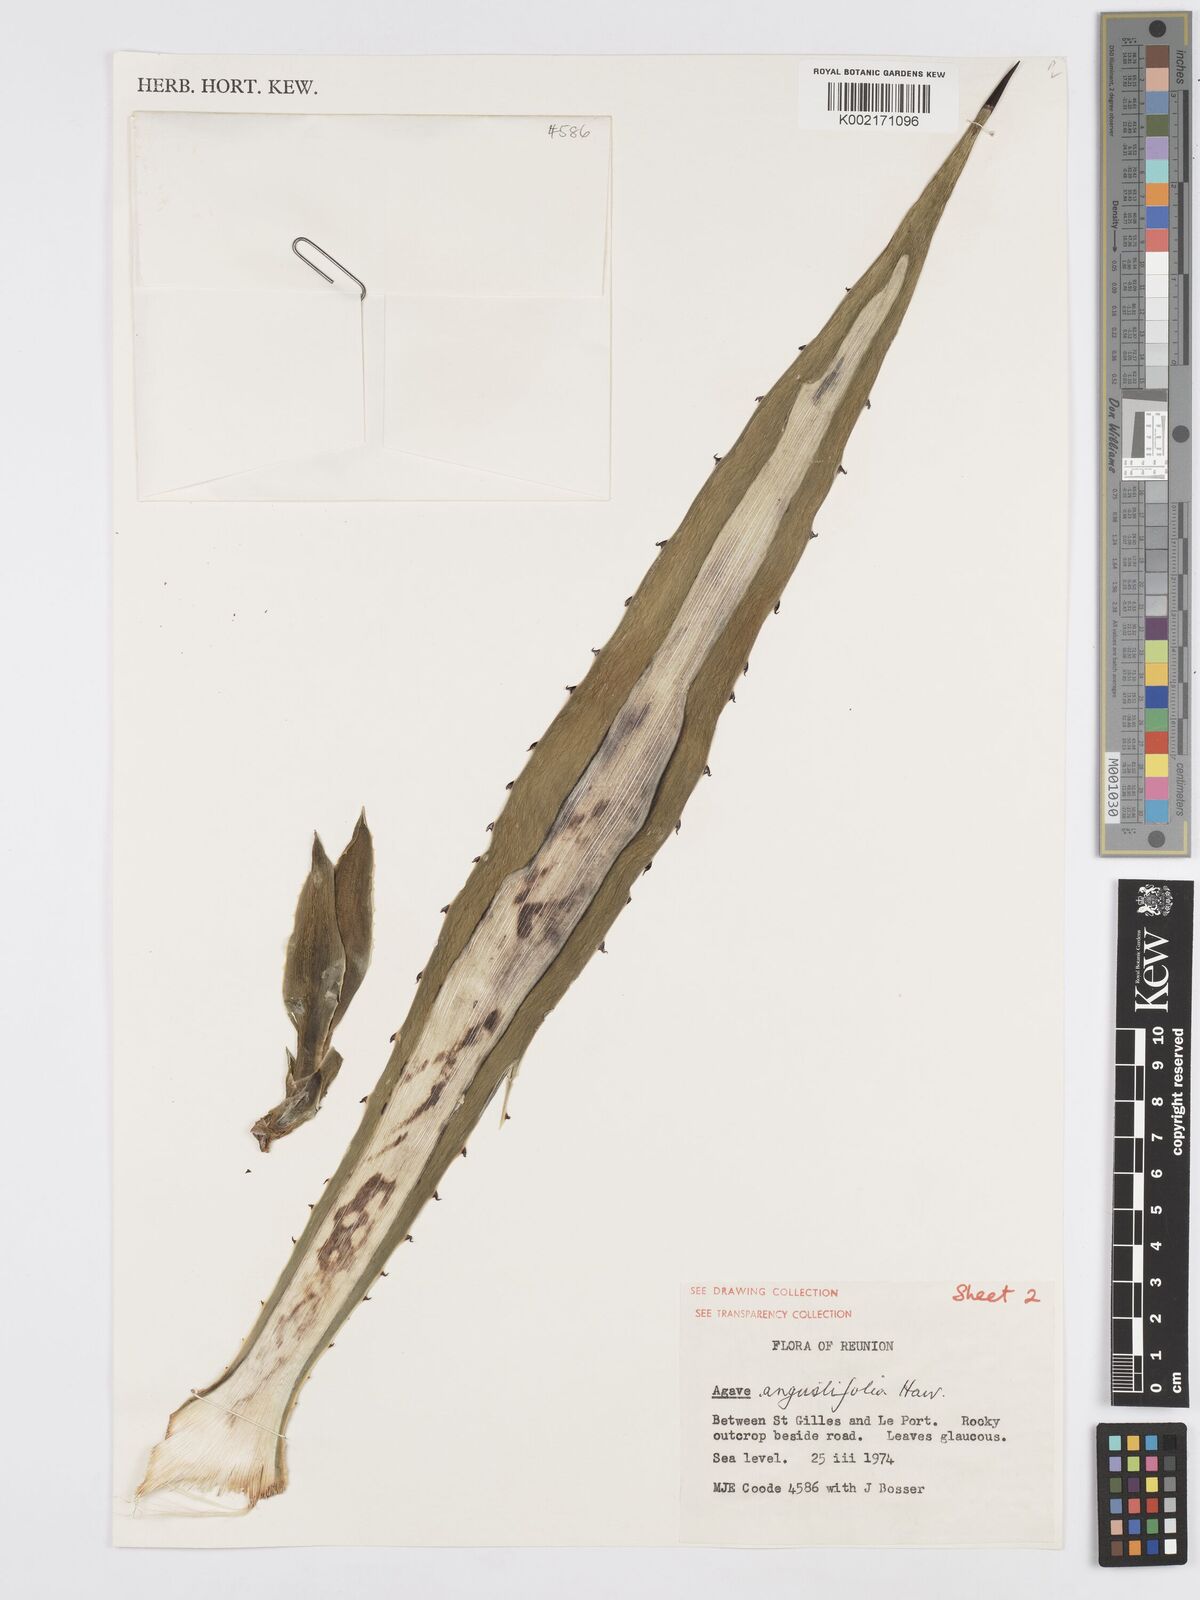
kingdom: Plantae
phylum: Tracheophyta
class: Liliopsida
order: Asparagales
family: Asparagaceae
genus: Agave
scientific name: Agave angustifolia
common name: Mescal agave
